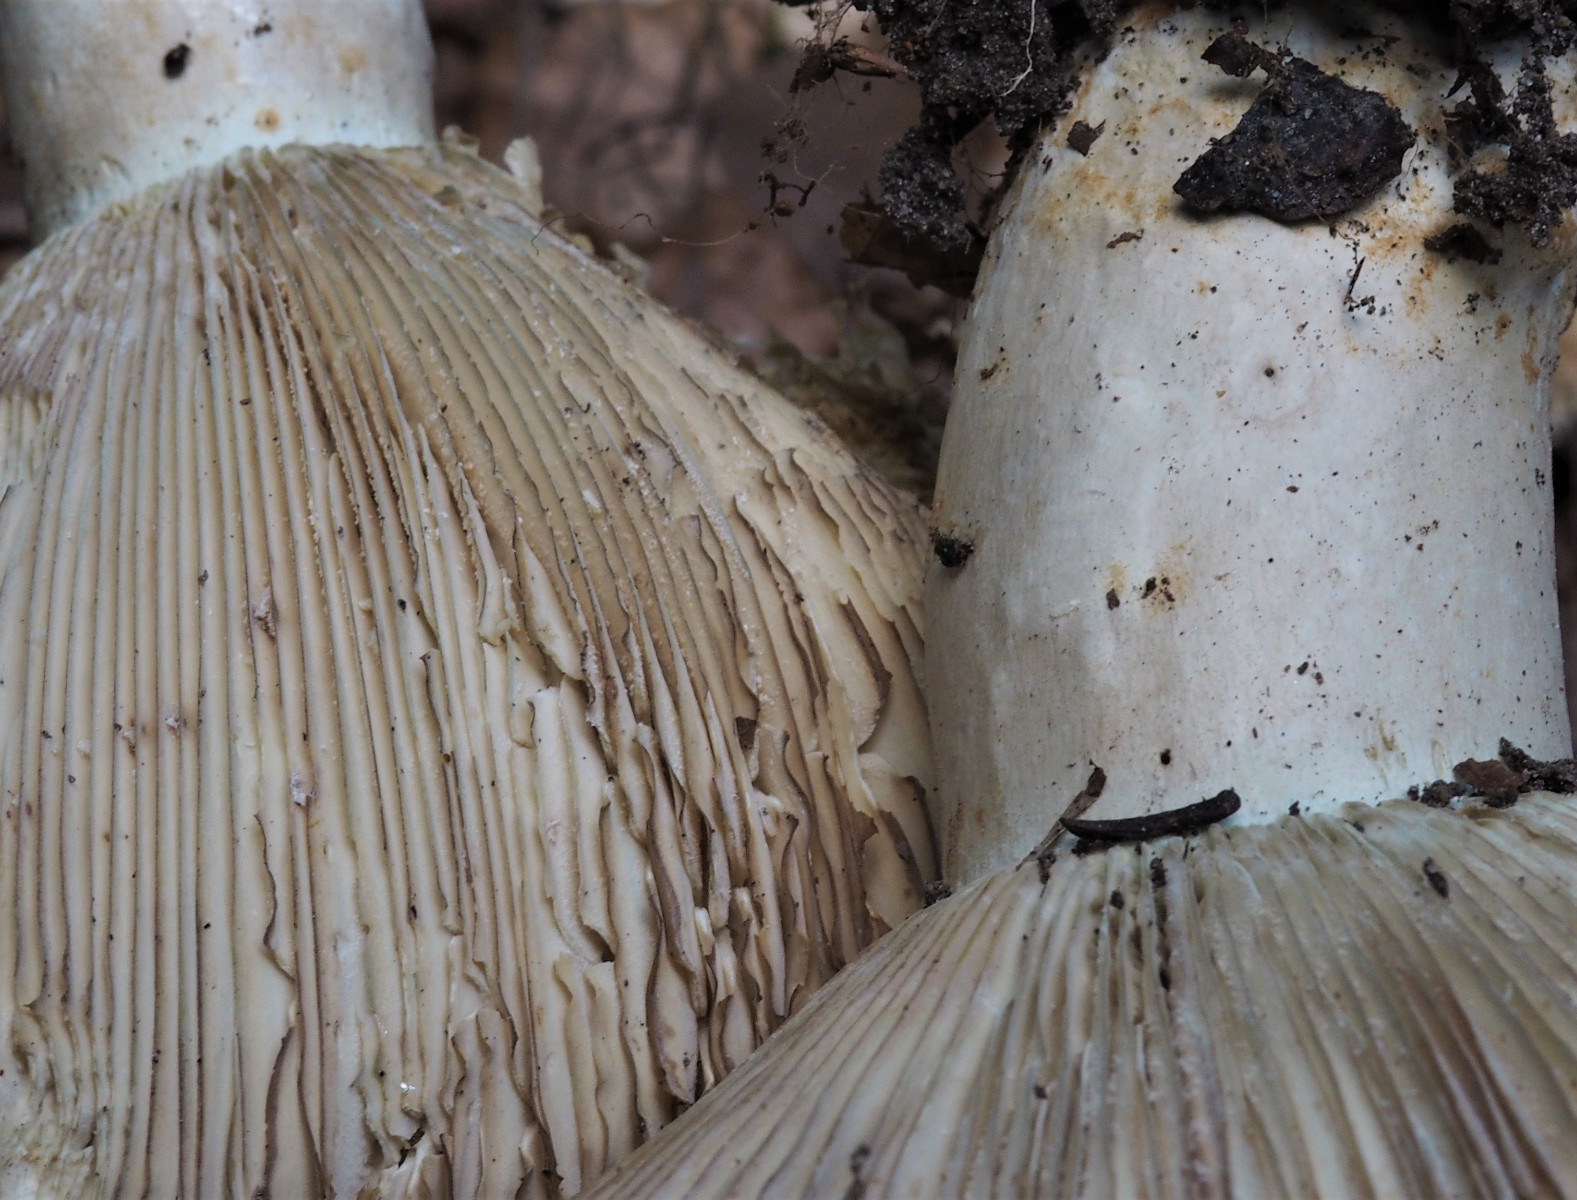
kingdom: Fungi
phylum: Basidiomycota
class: Agaricomycetes
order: Russulales
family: Russulaceae
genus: Russula
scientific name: Russula chloroides
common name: grønhalset tragt-skørhat
